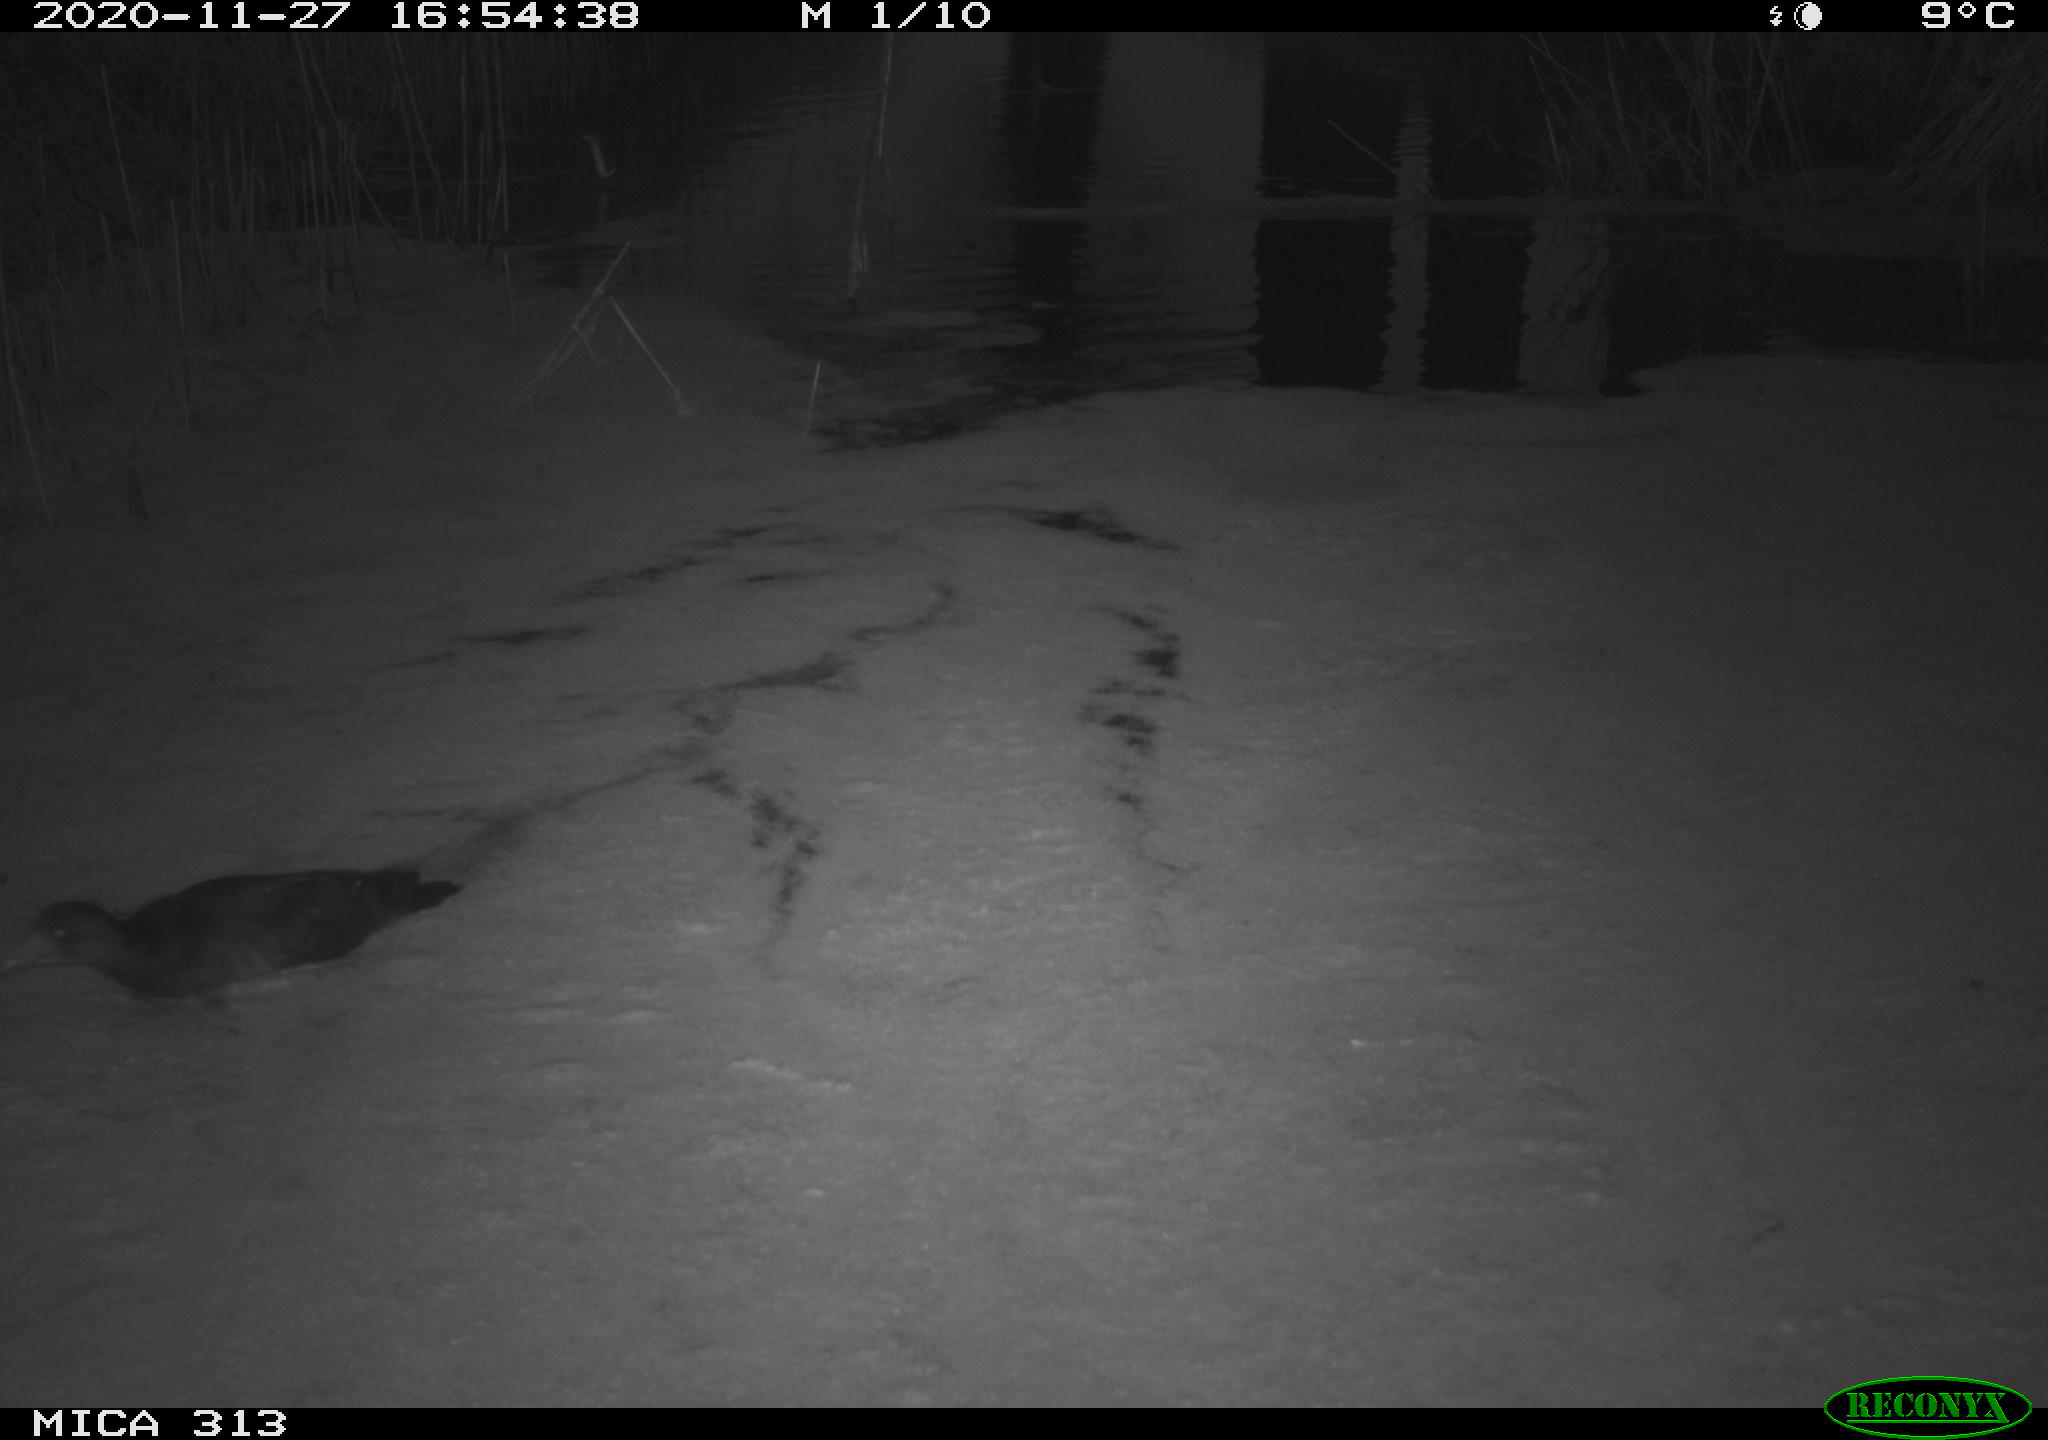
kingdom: Animalia
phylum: Chordata
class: Aves
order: Gruiformes
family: Rallidae
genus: Gallinula
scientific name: Gallinula chloropus
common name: Common moorhen
